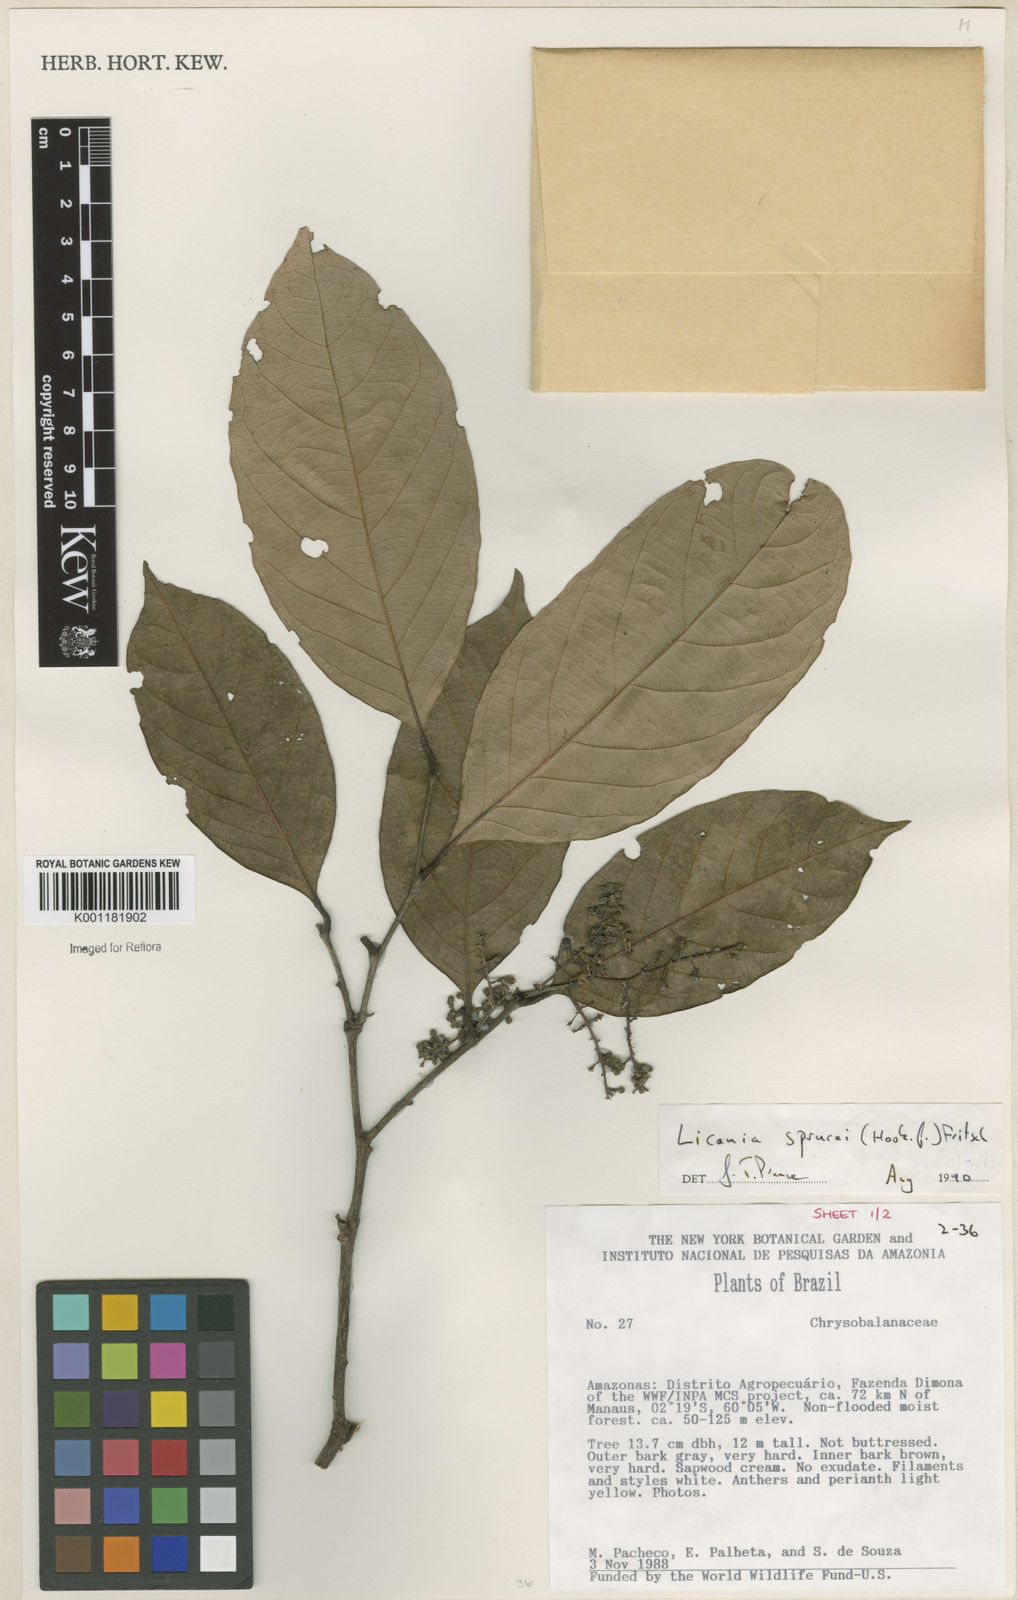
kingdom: Plantae
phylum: Tracheophyta
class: Magnoliopsida
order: Malpighiales
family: Chrysobalanaceae
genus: Leptobalanus
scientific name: Leptobalanus sprucei
